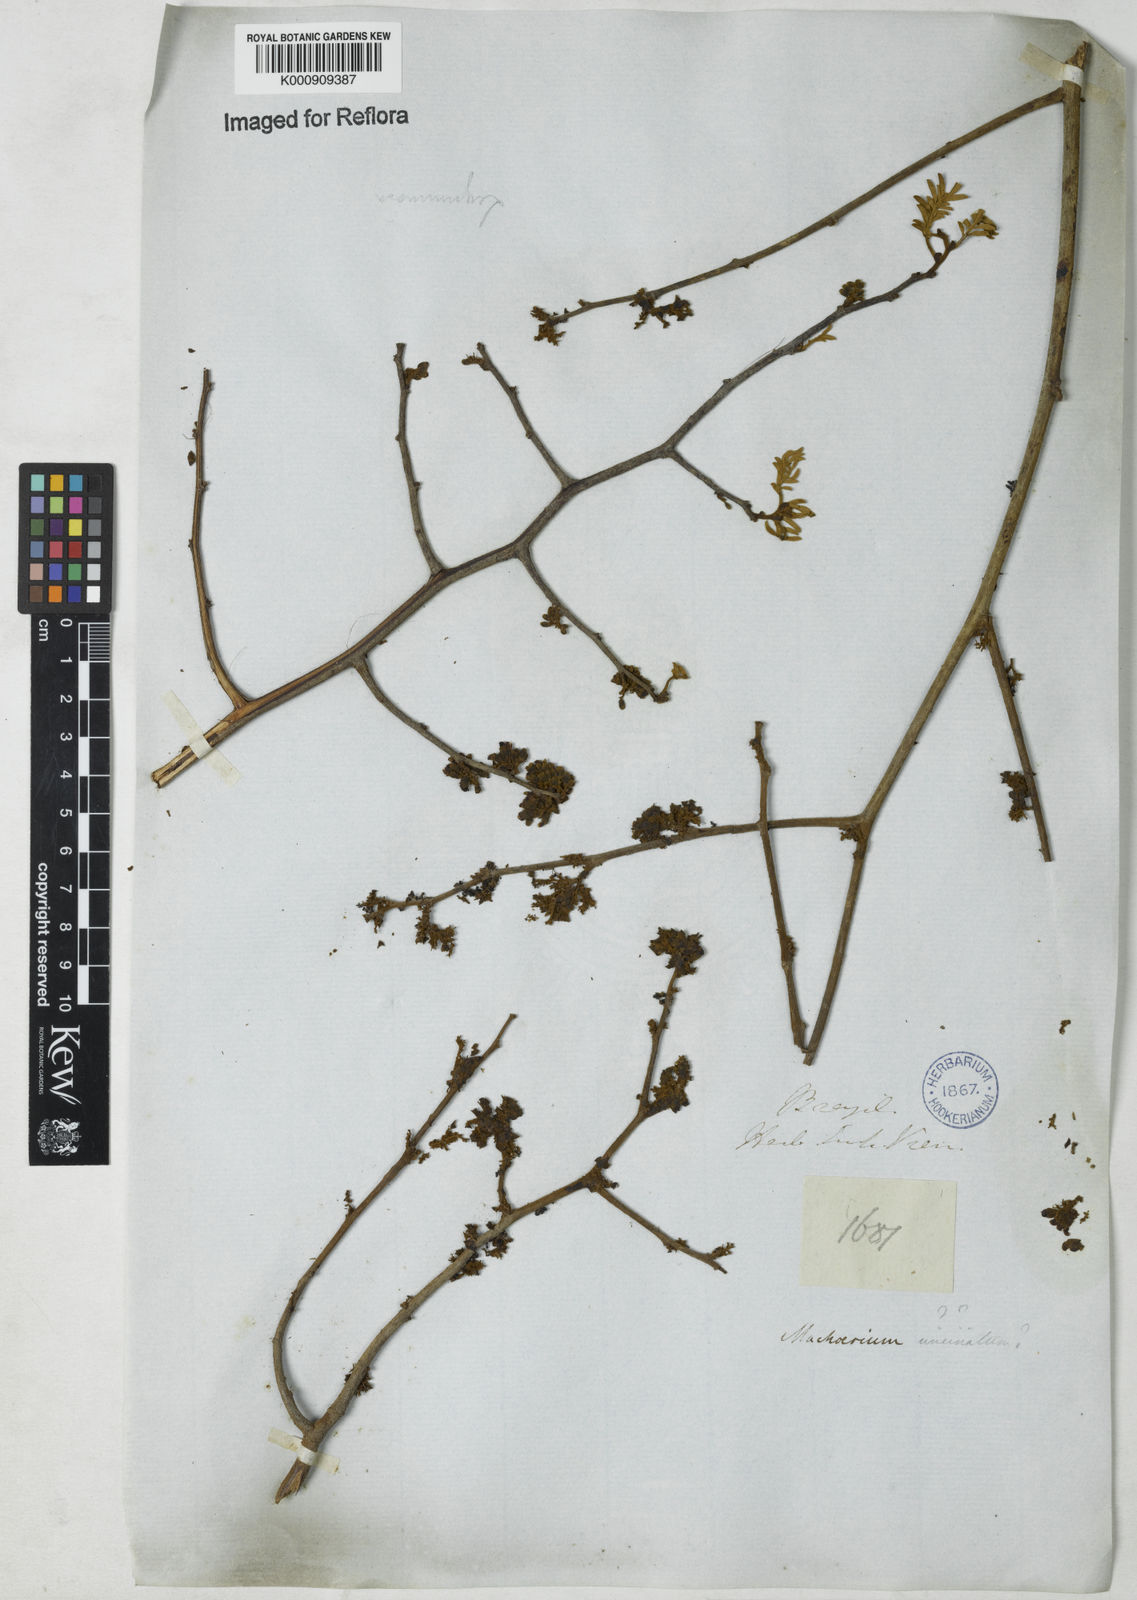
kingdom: Plantae
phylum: Tracheophyta
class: Magnoliopsida
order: Fabales
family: Fabaceae
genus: Dalbergia
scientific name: Dalbergia
